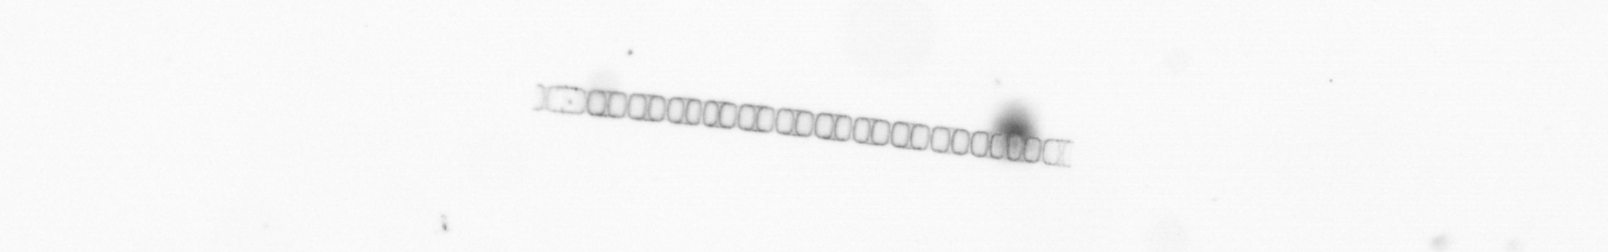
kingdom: Chromista
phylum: Ochrophyta
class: Bacillariophyceae
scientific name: Bacillariophyceae
